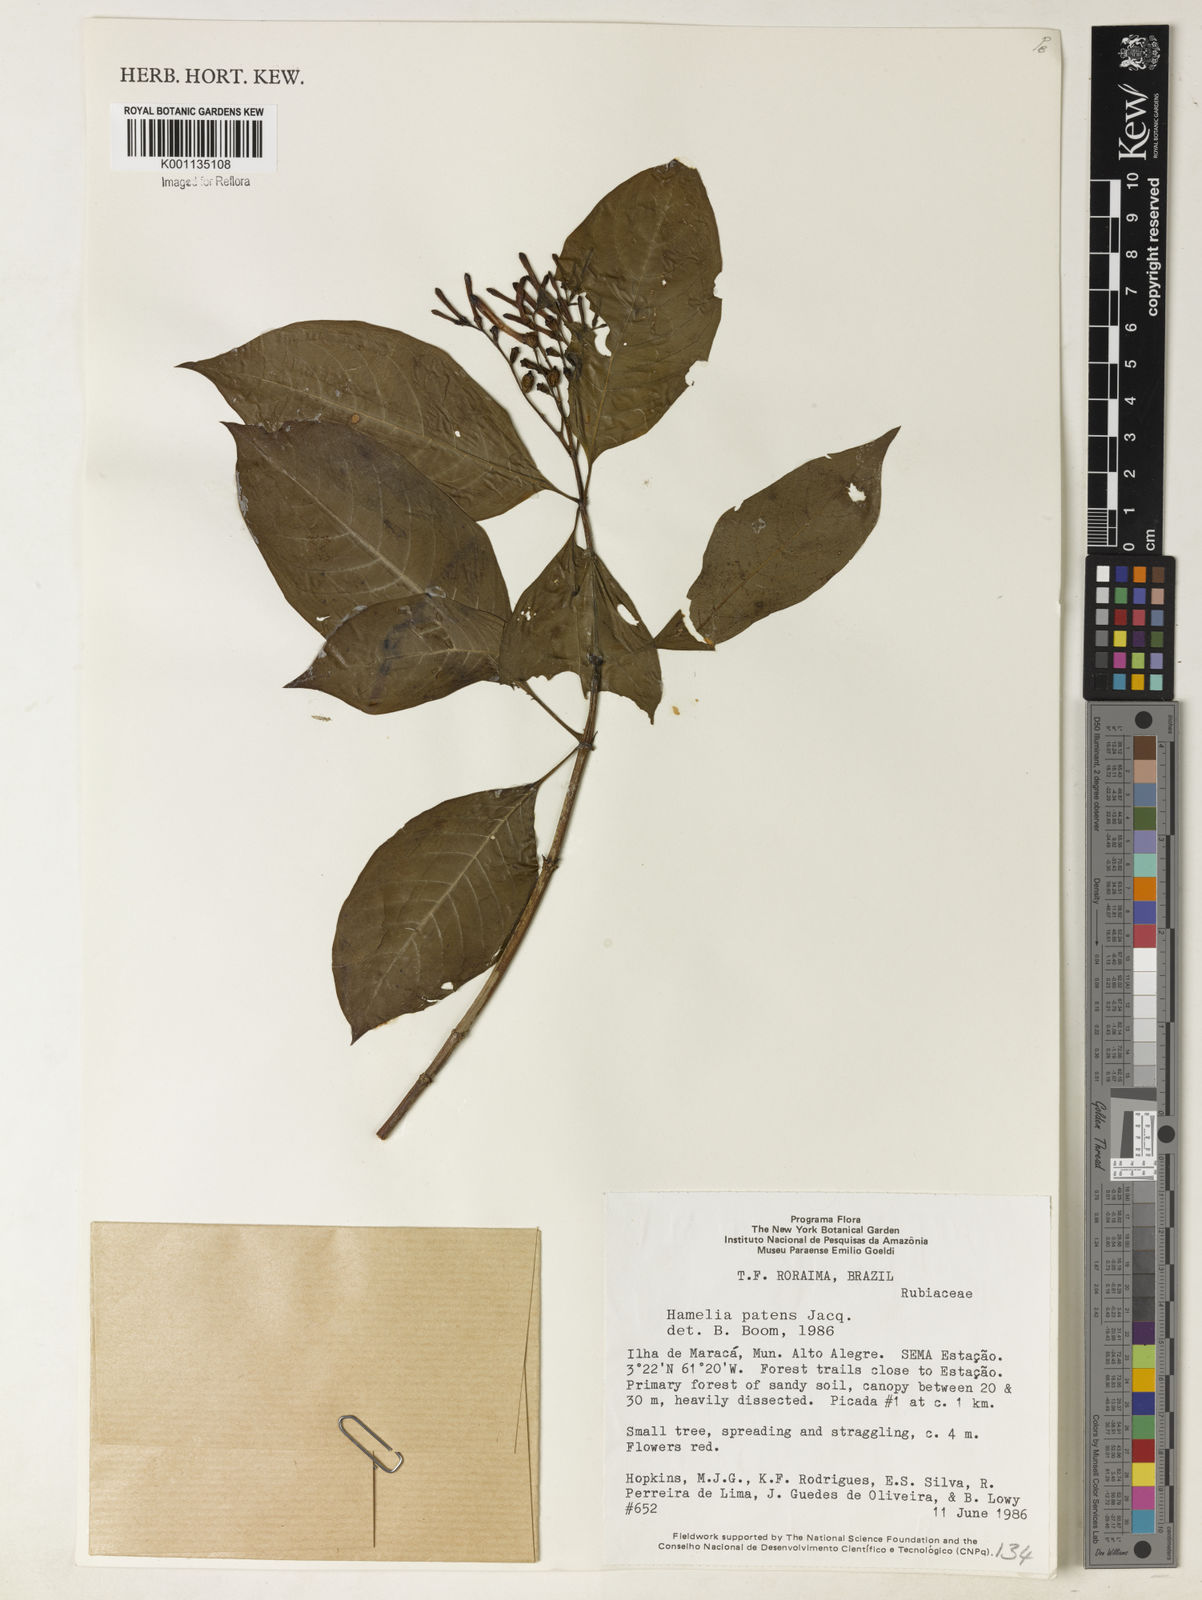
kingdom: Plantae
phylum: Tracheophyta
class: Magnoliopsida
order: Gentianales
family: Rubiaceae
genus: Hamelia
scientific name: Hamelia patens
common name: Redhead
